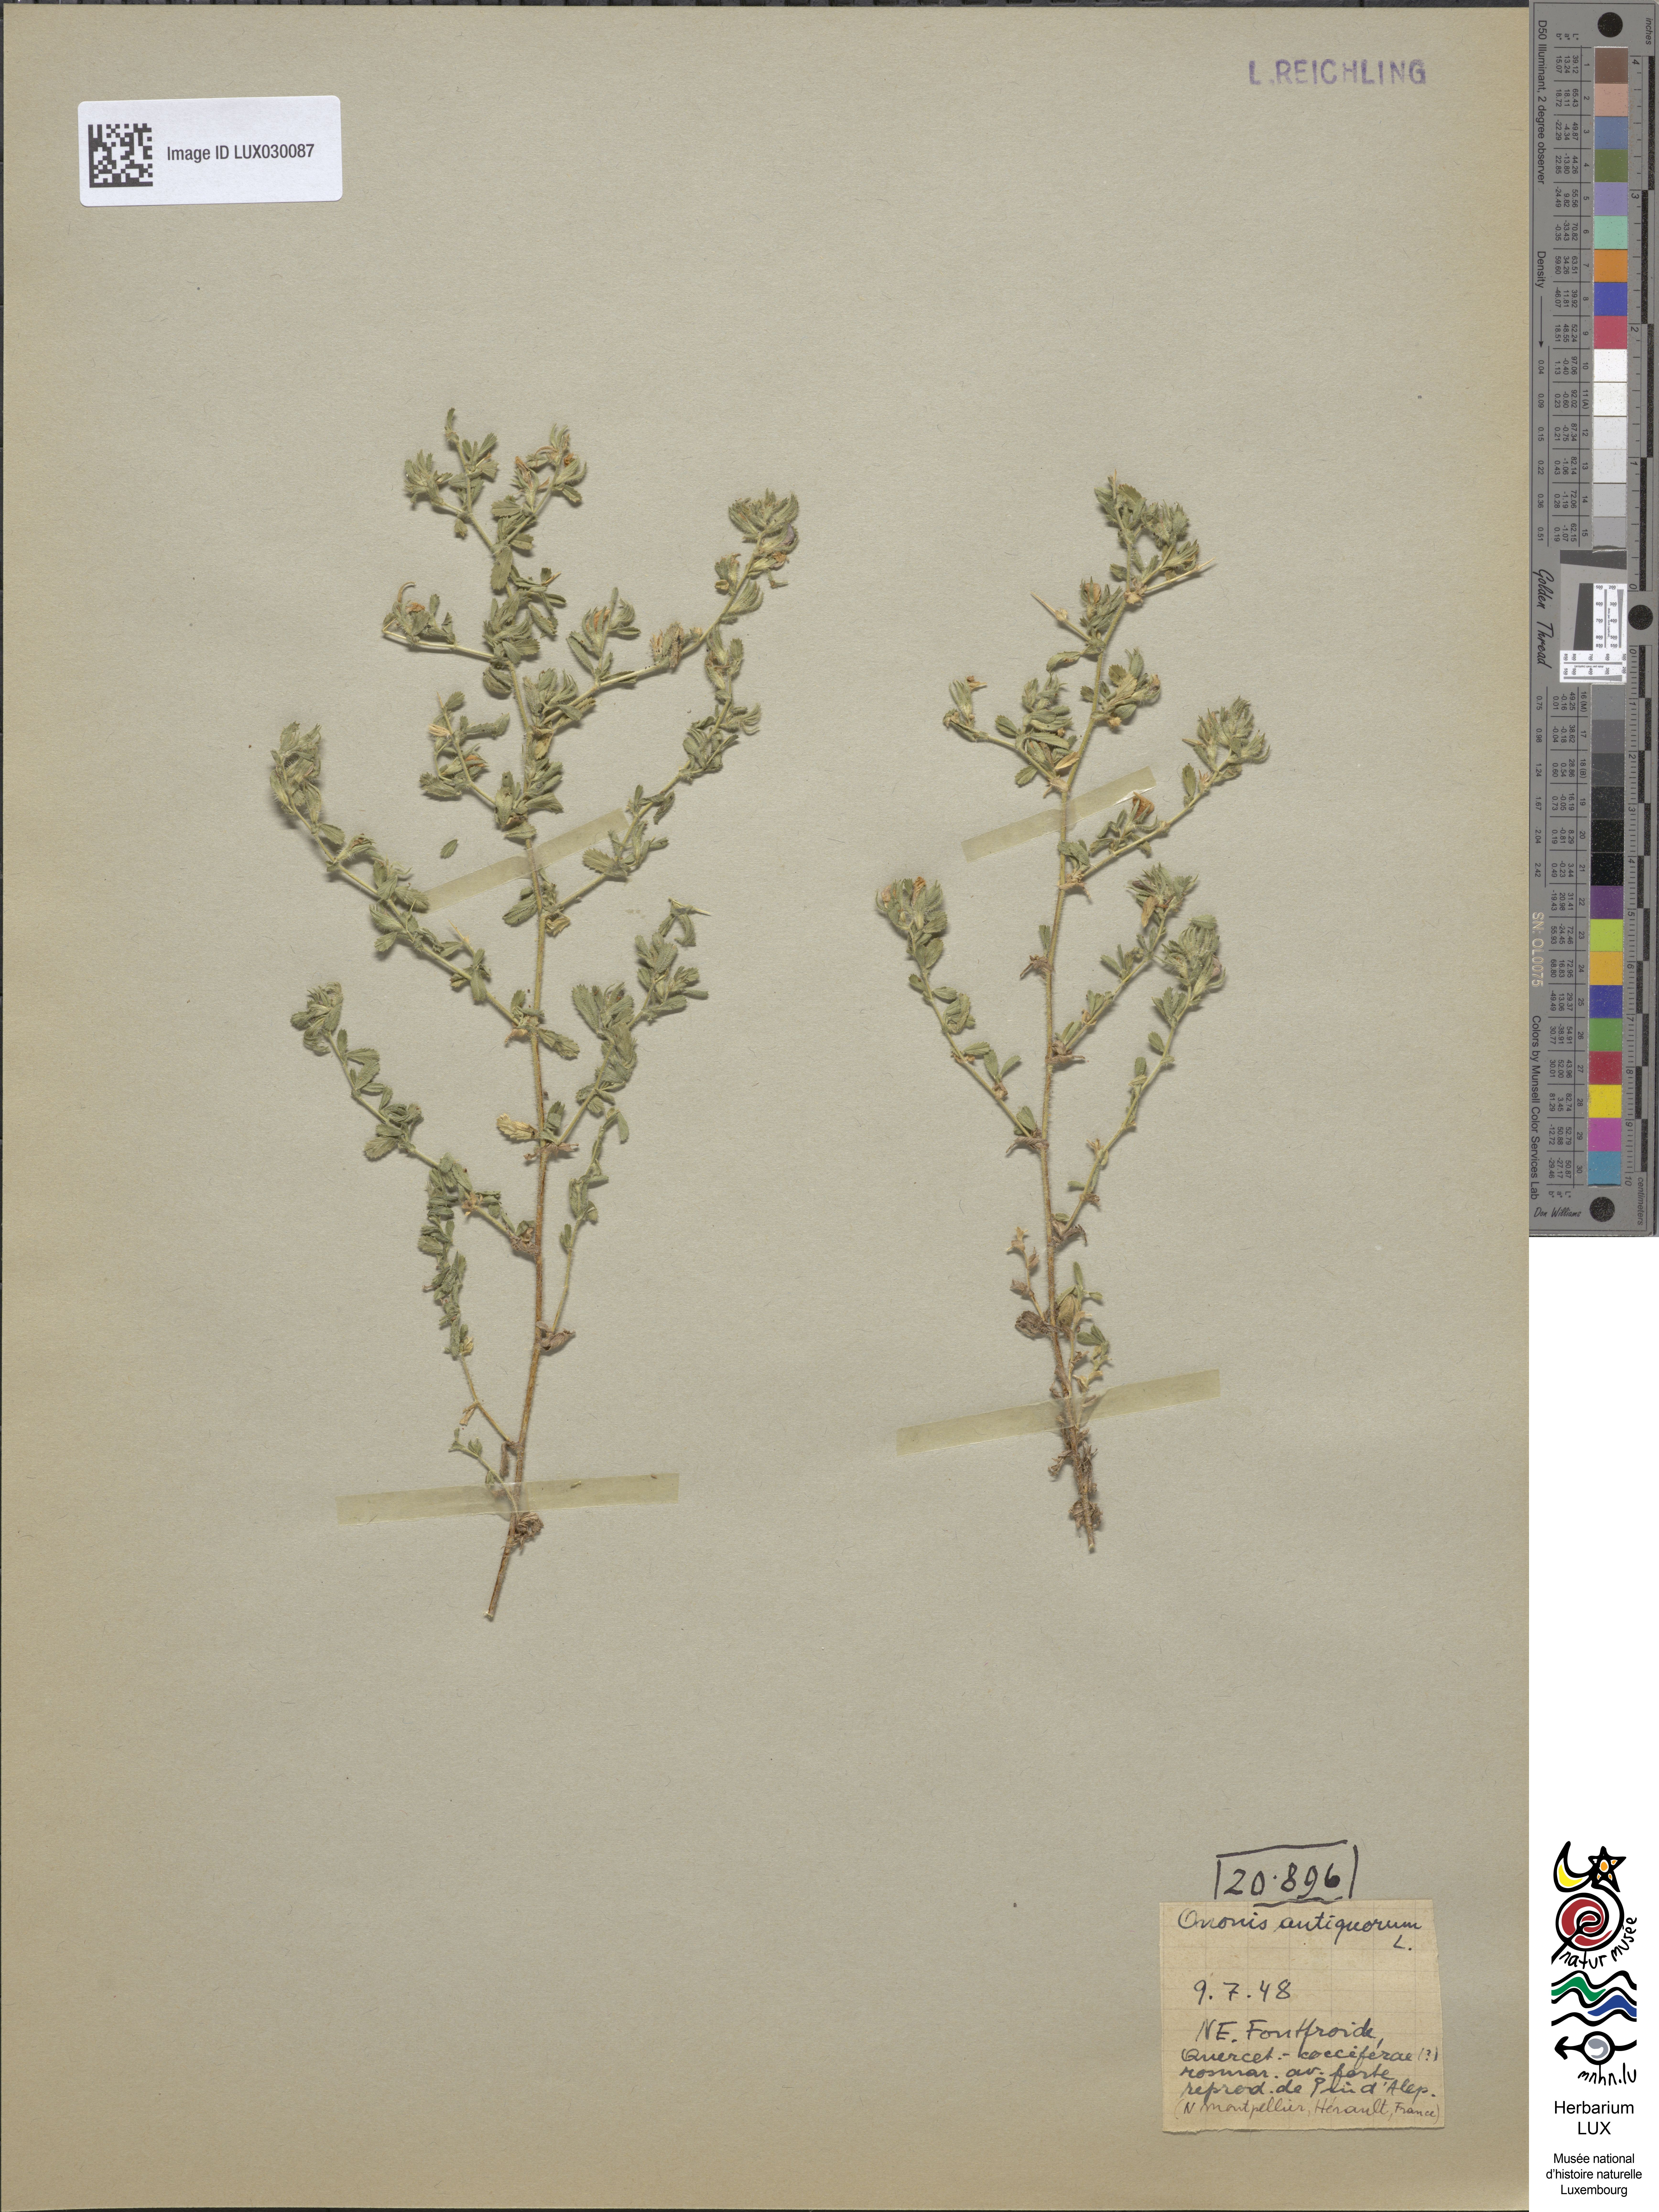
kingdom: Plantae
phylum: Tracheophyta
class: Magnoliopsida
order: Fabales
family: Fabaceae
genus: Ononis
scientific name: Ononis spinosa
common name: Spiny restharrow
